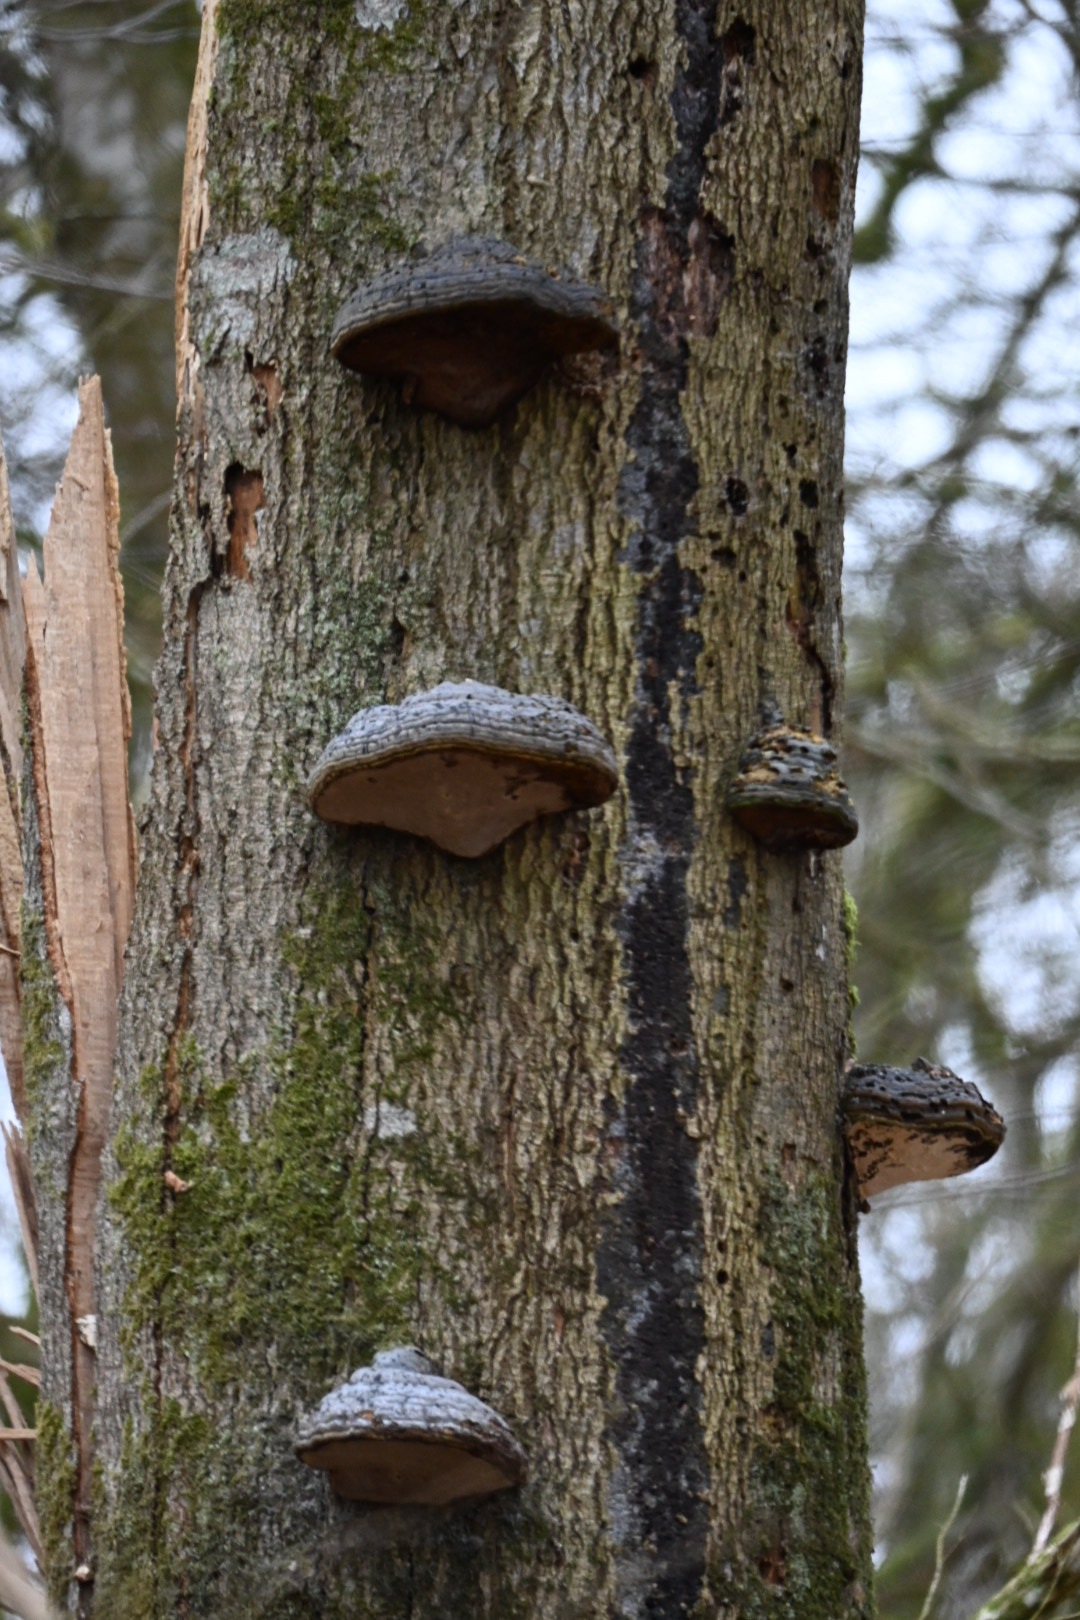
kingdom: Fungi
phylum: Basidiomycota
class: Agaricomycetes
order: Polyporales
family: Polyporaceae
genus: Fomes
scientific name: Fomes fomentarius
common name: tøndersvamp
